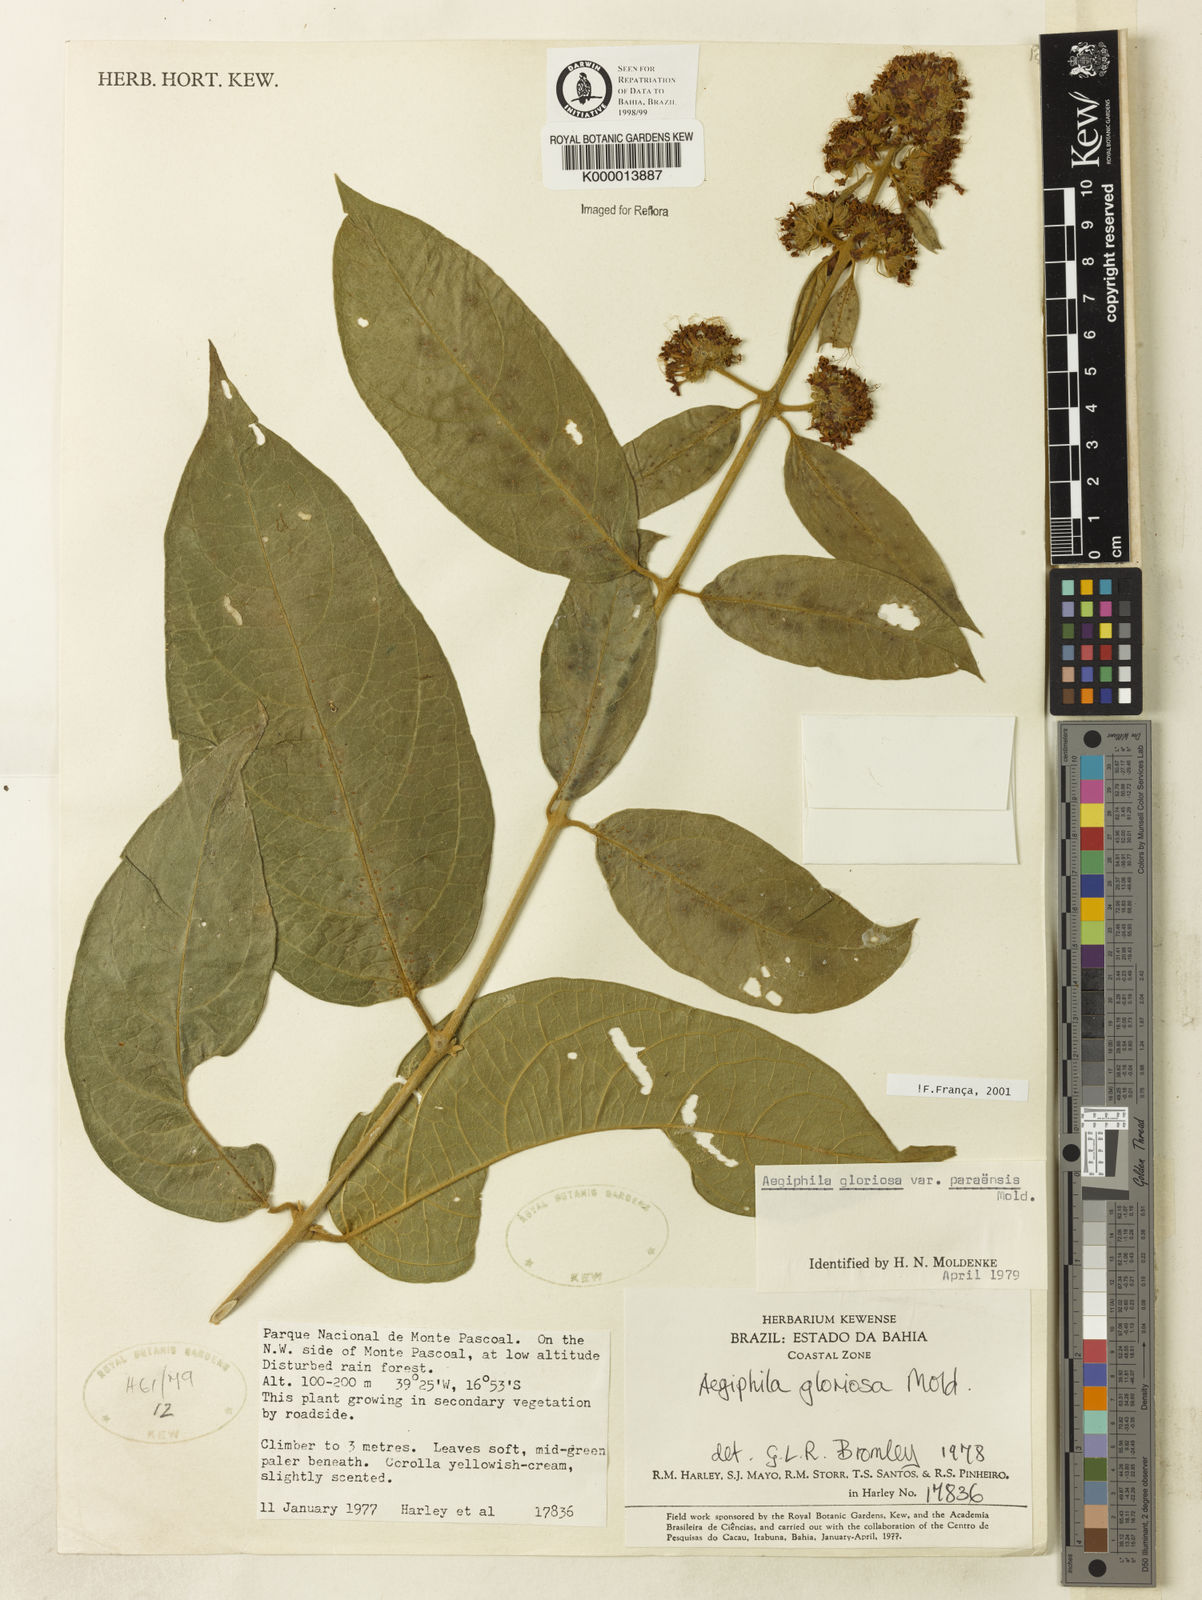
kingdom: Plantae
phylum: Tracheophyta
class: Magnoliopsida
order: Lamiales
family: Lamiaceae
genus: Aegiphila
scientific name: Aegiphila gloriosa
